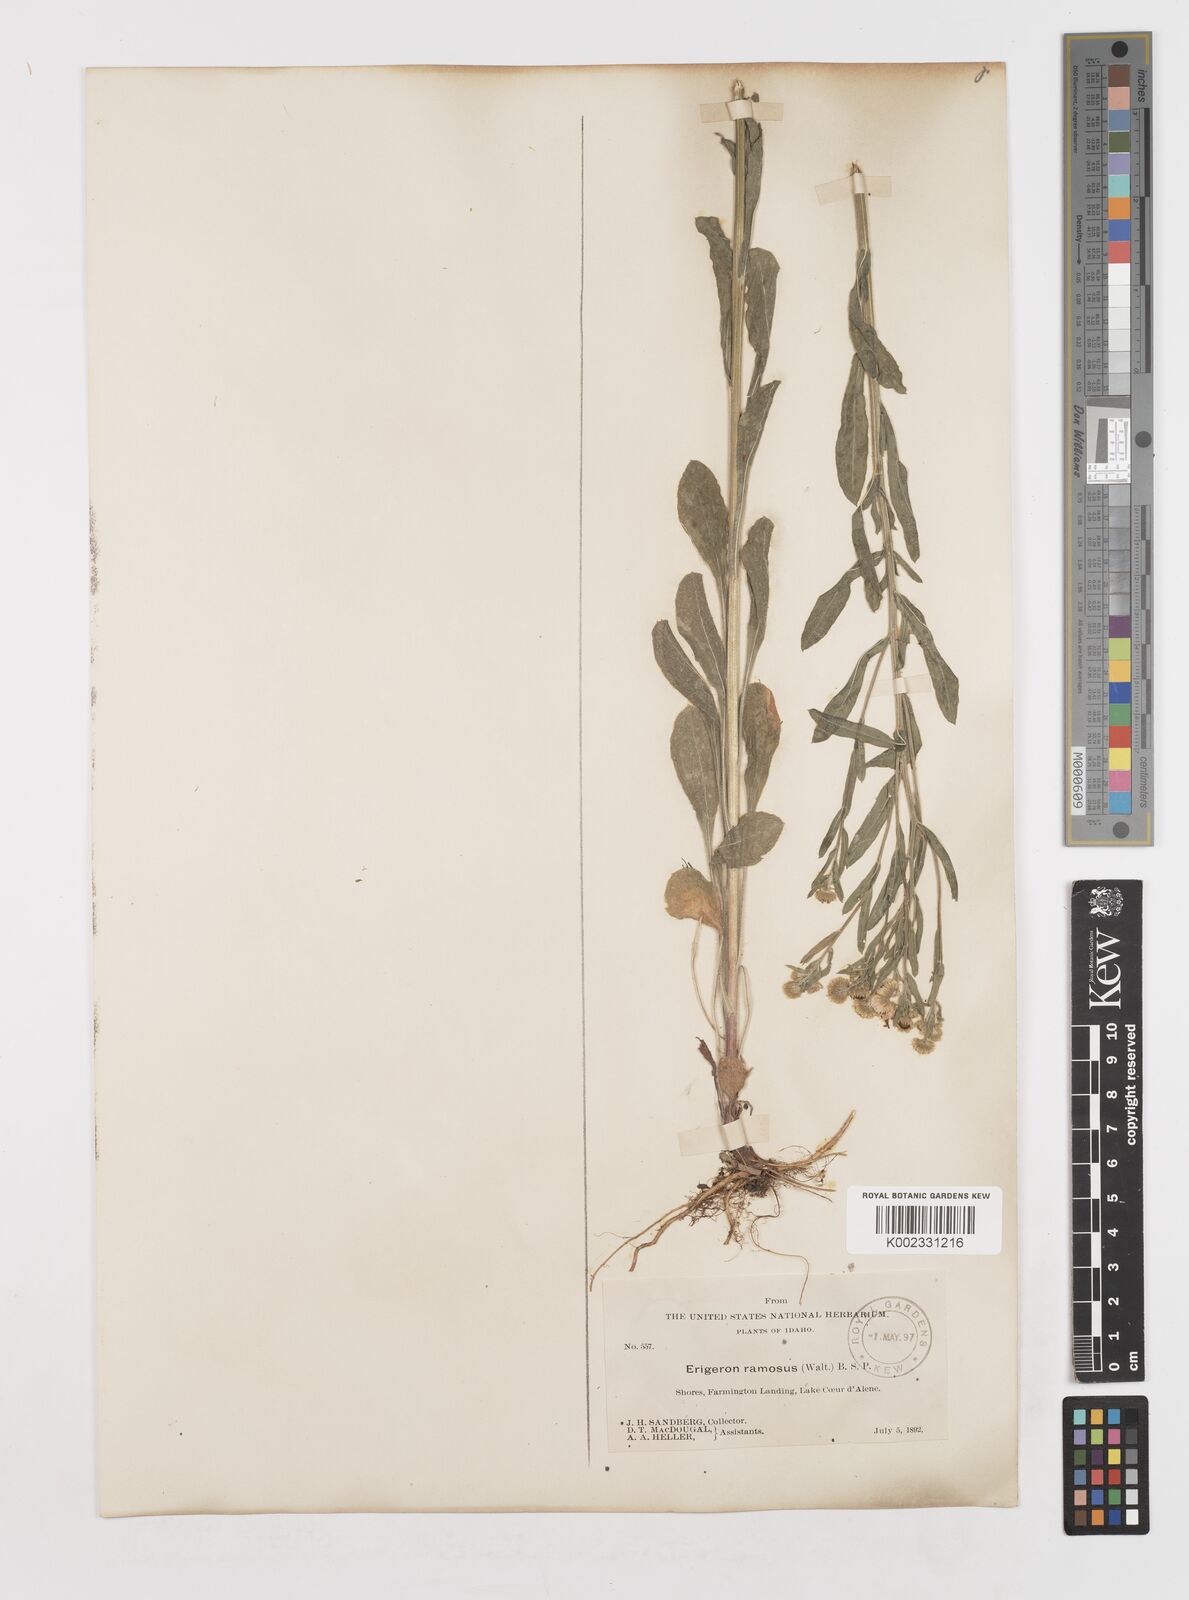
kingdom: Plantae
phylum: Tracheophyta
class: Magnoliopsida
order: Asterales
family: Asteraceae
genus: Erigeron
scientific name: Erigeron strigosus
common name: Common eastern fleabane
